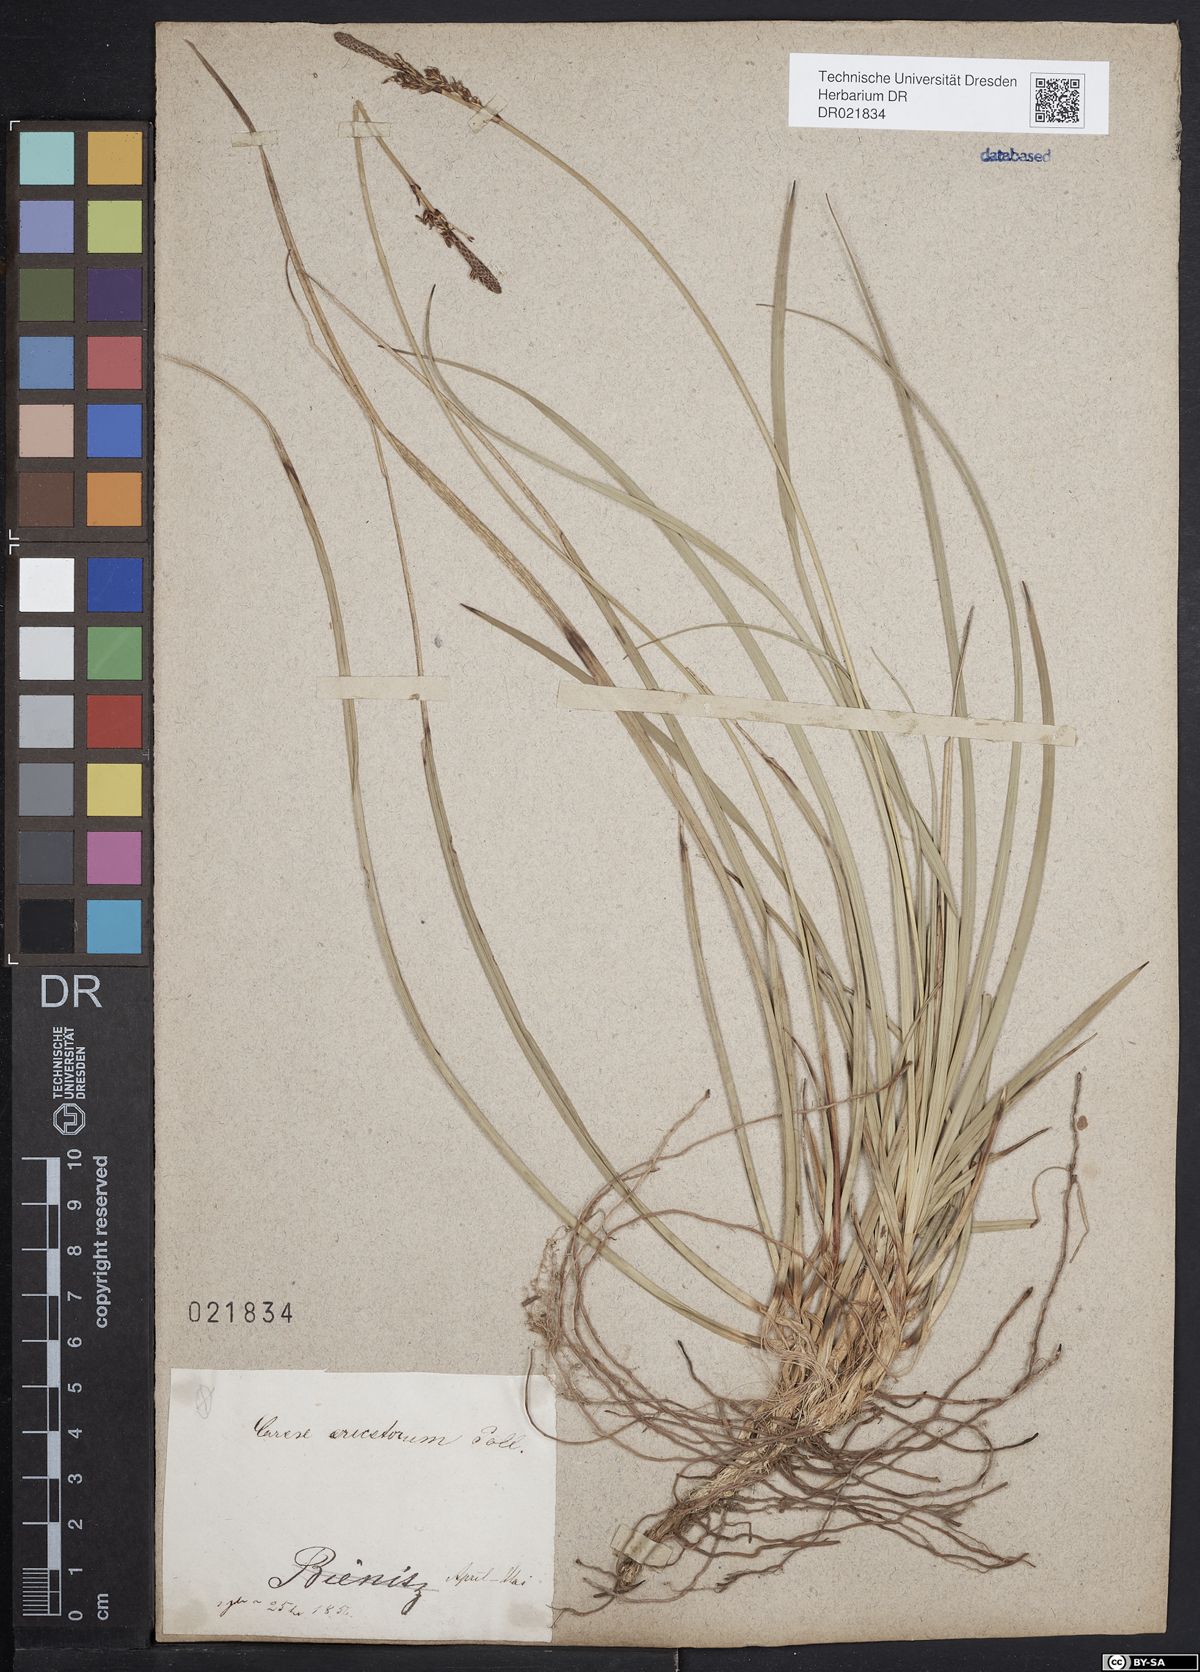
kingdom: Plantae
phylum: Tracheophyta
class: Liliopsida
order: Poales
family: Cyperaceae
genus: Carex
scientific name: Carex ericetorum
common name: Rare spring-sedge
